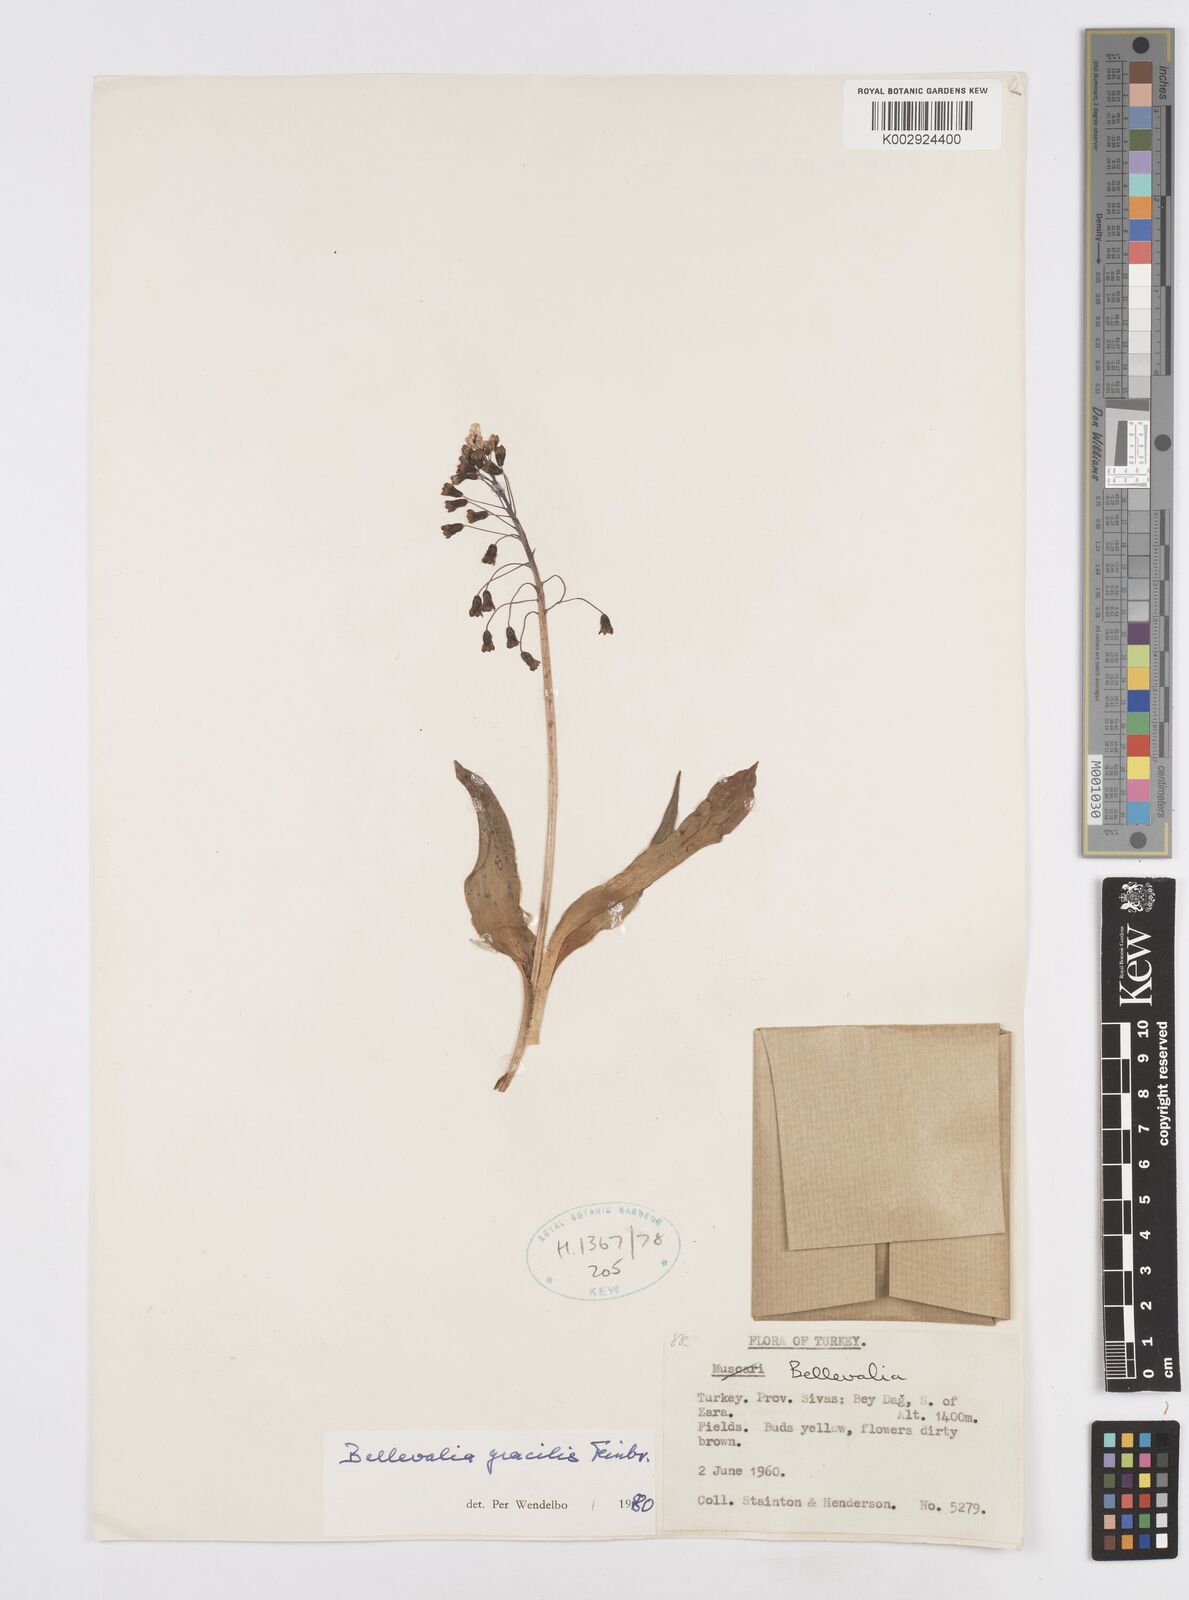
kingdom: Plantae
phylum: Tracheophyta
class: Liliopsida
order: Asparagales
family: Asparagaceae
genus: Bellevalia
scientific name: Bellevalia gracilis
